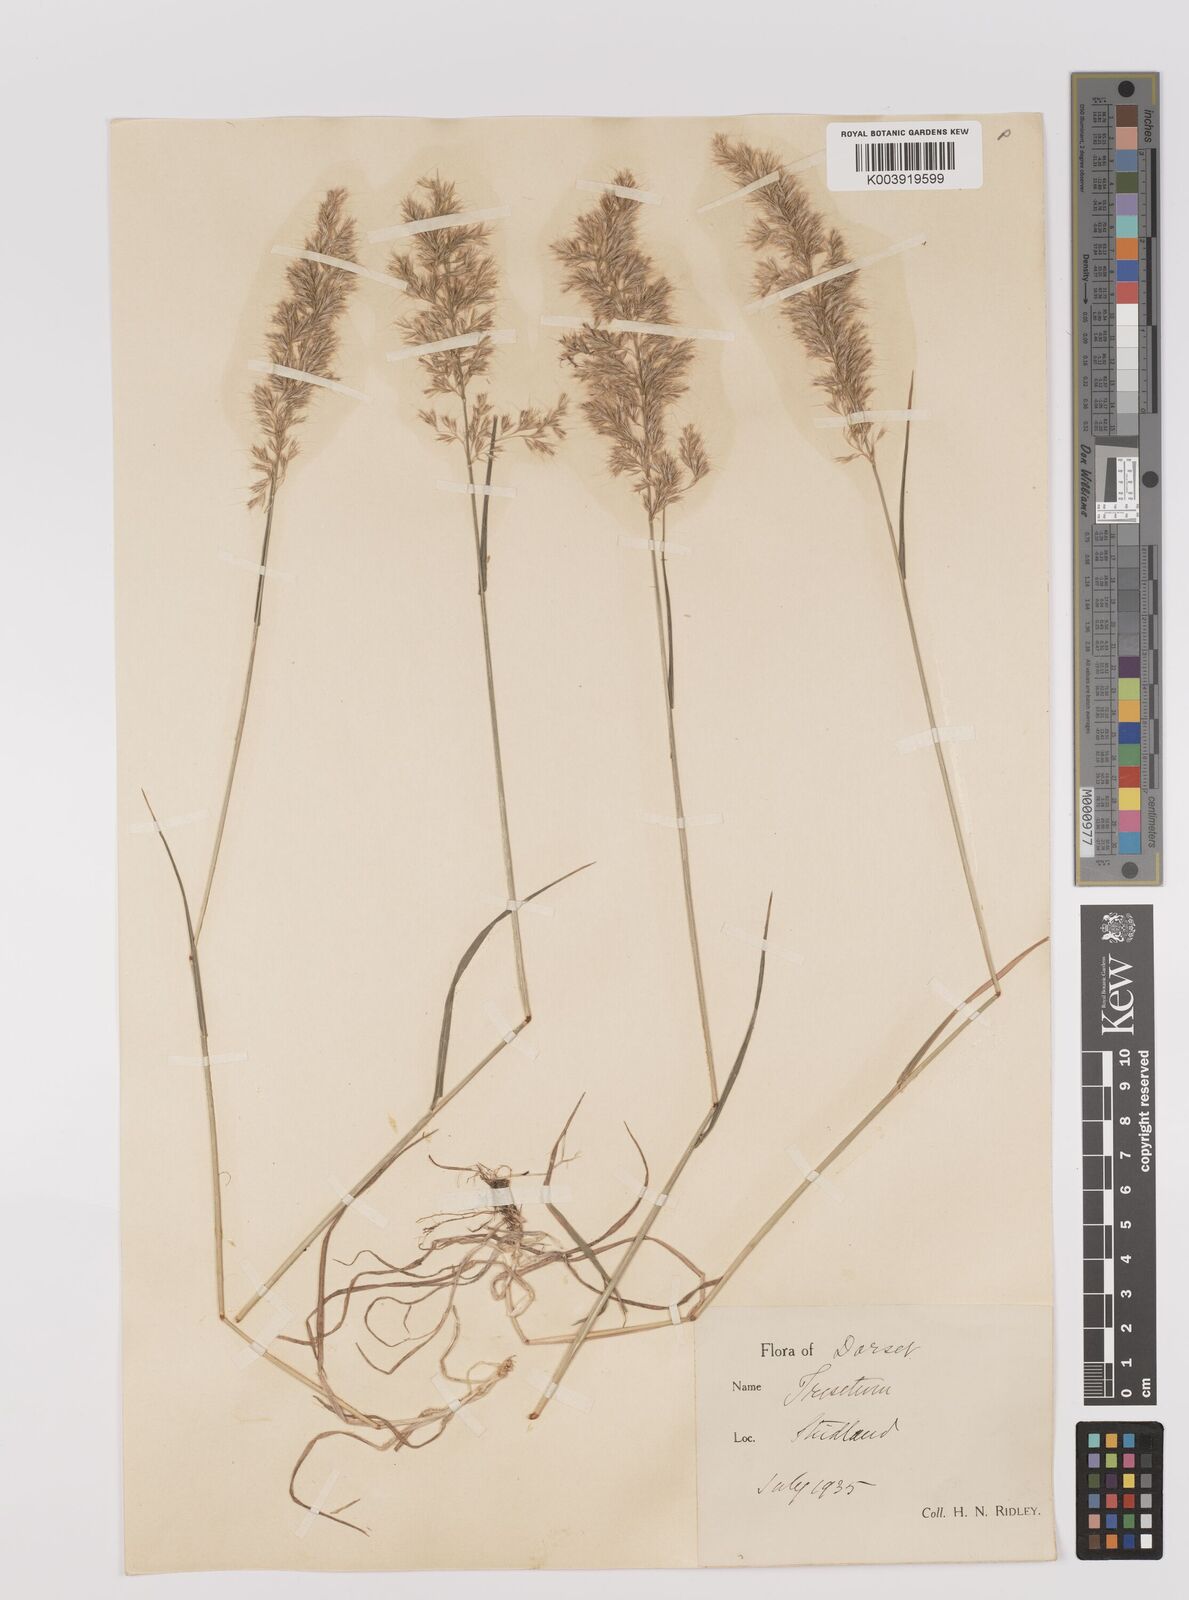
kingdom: Plantae
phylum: Tracheophyta
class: Liliopsida
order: Poales
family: Poaceae
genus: Trisetum
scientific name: Trisetum flavescens
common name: Yellow oat-grass
